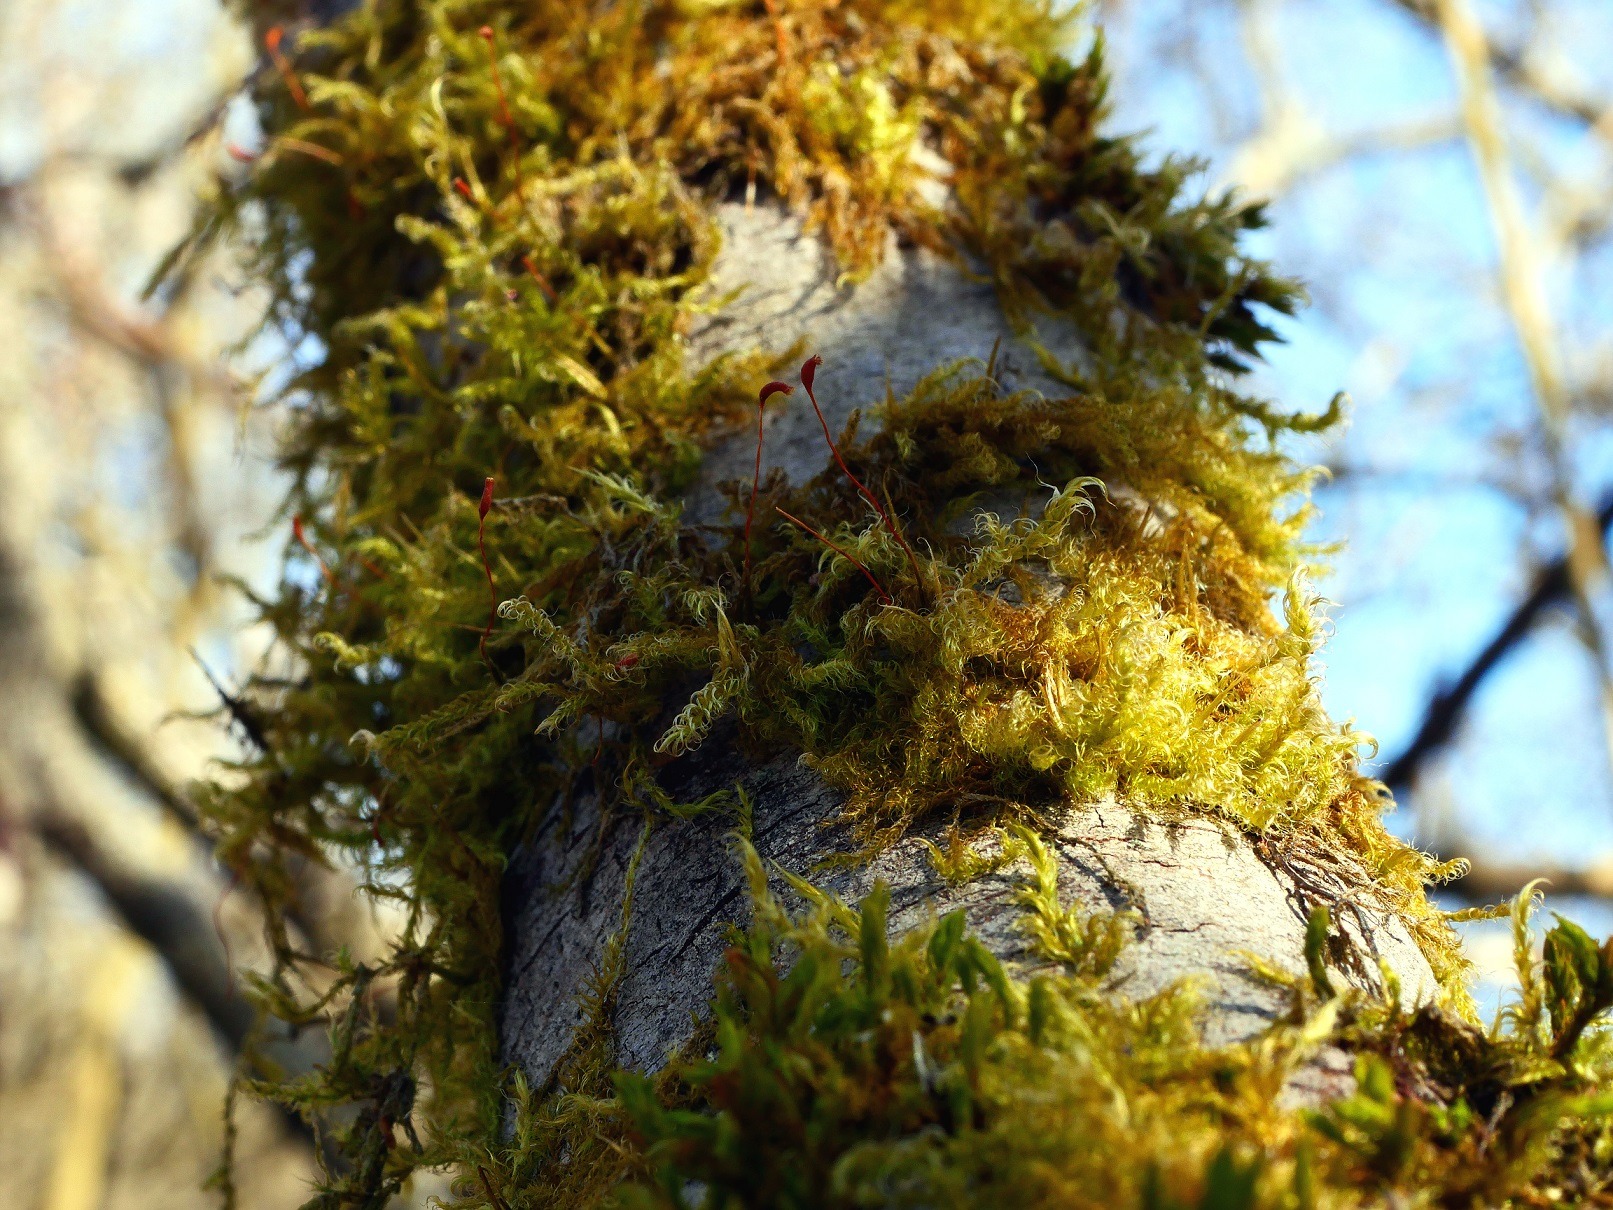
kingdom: Plantae
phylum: Bryophyta
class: Bryopsida
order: Hypnales
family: Scorpidiaceae
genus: Sanionia
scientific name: Sanionia uncinata
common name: Stribet krogblad
